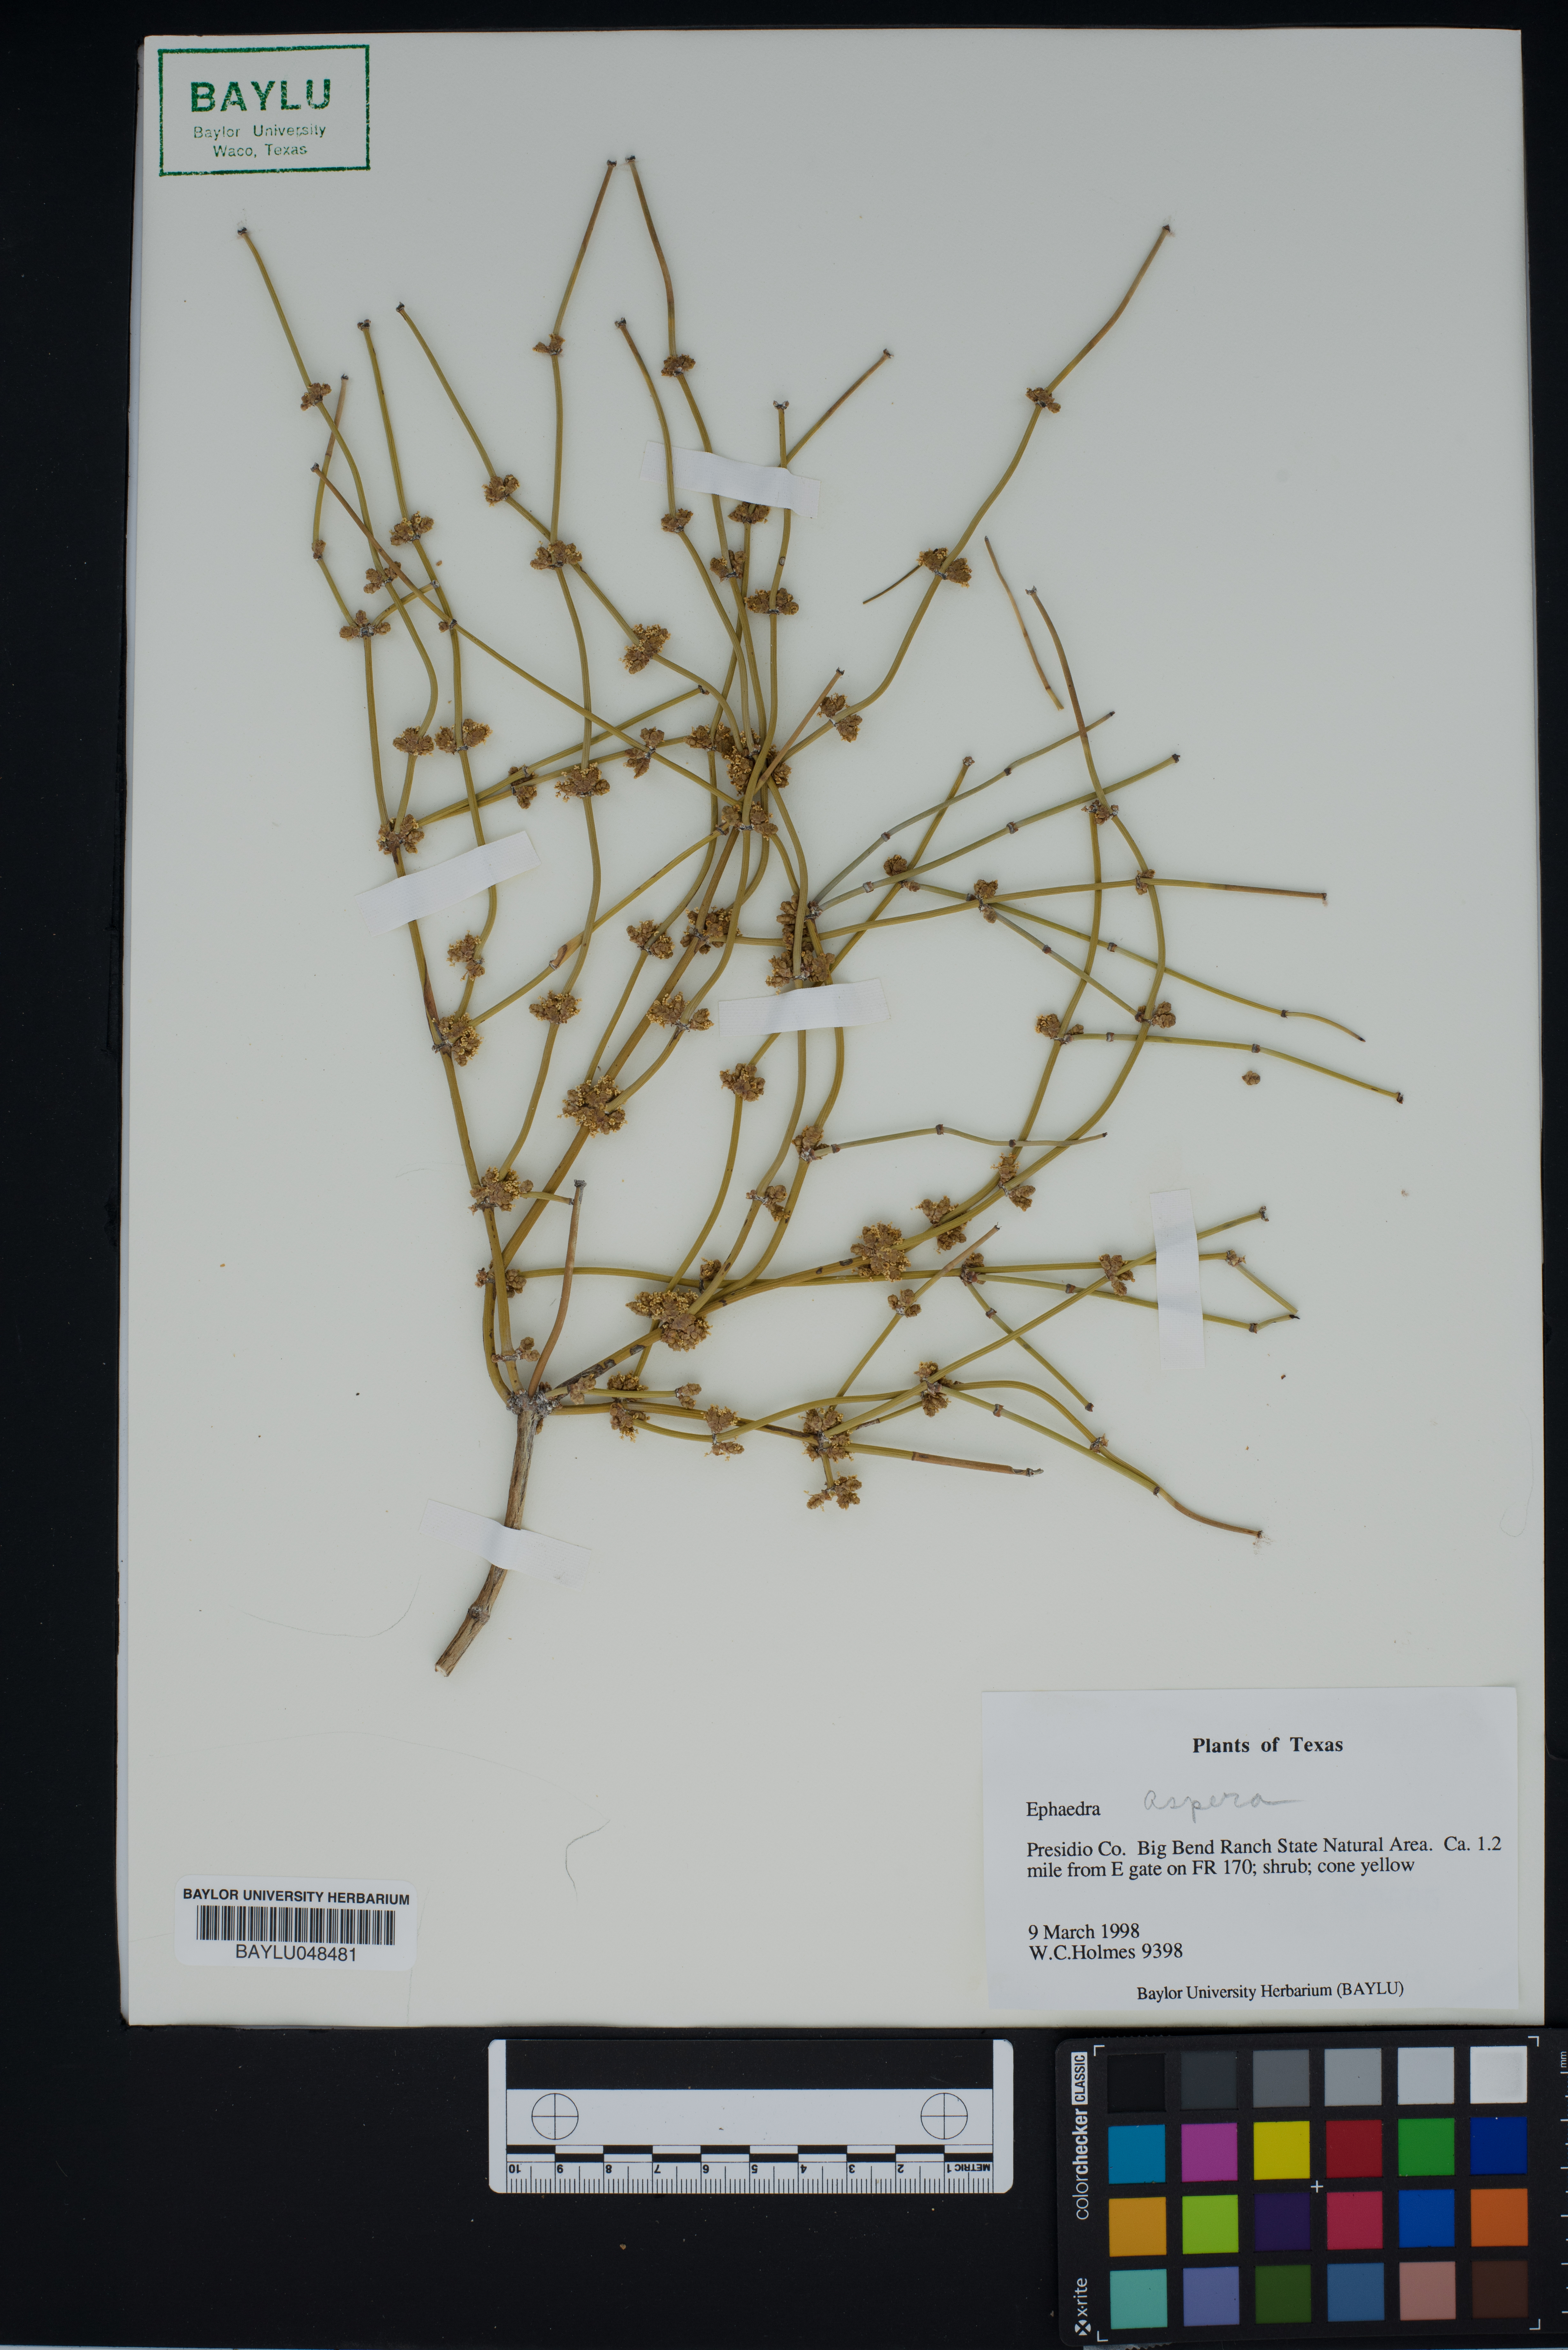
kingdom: Plantae
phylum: Tracheophyta
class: Gnetopsida
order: Ephedrales
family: Ephedraceae
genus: Ephedra
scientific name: Ephedra aspera
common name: Boundary ephedra
